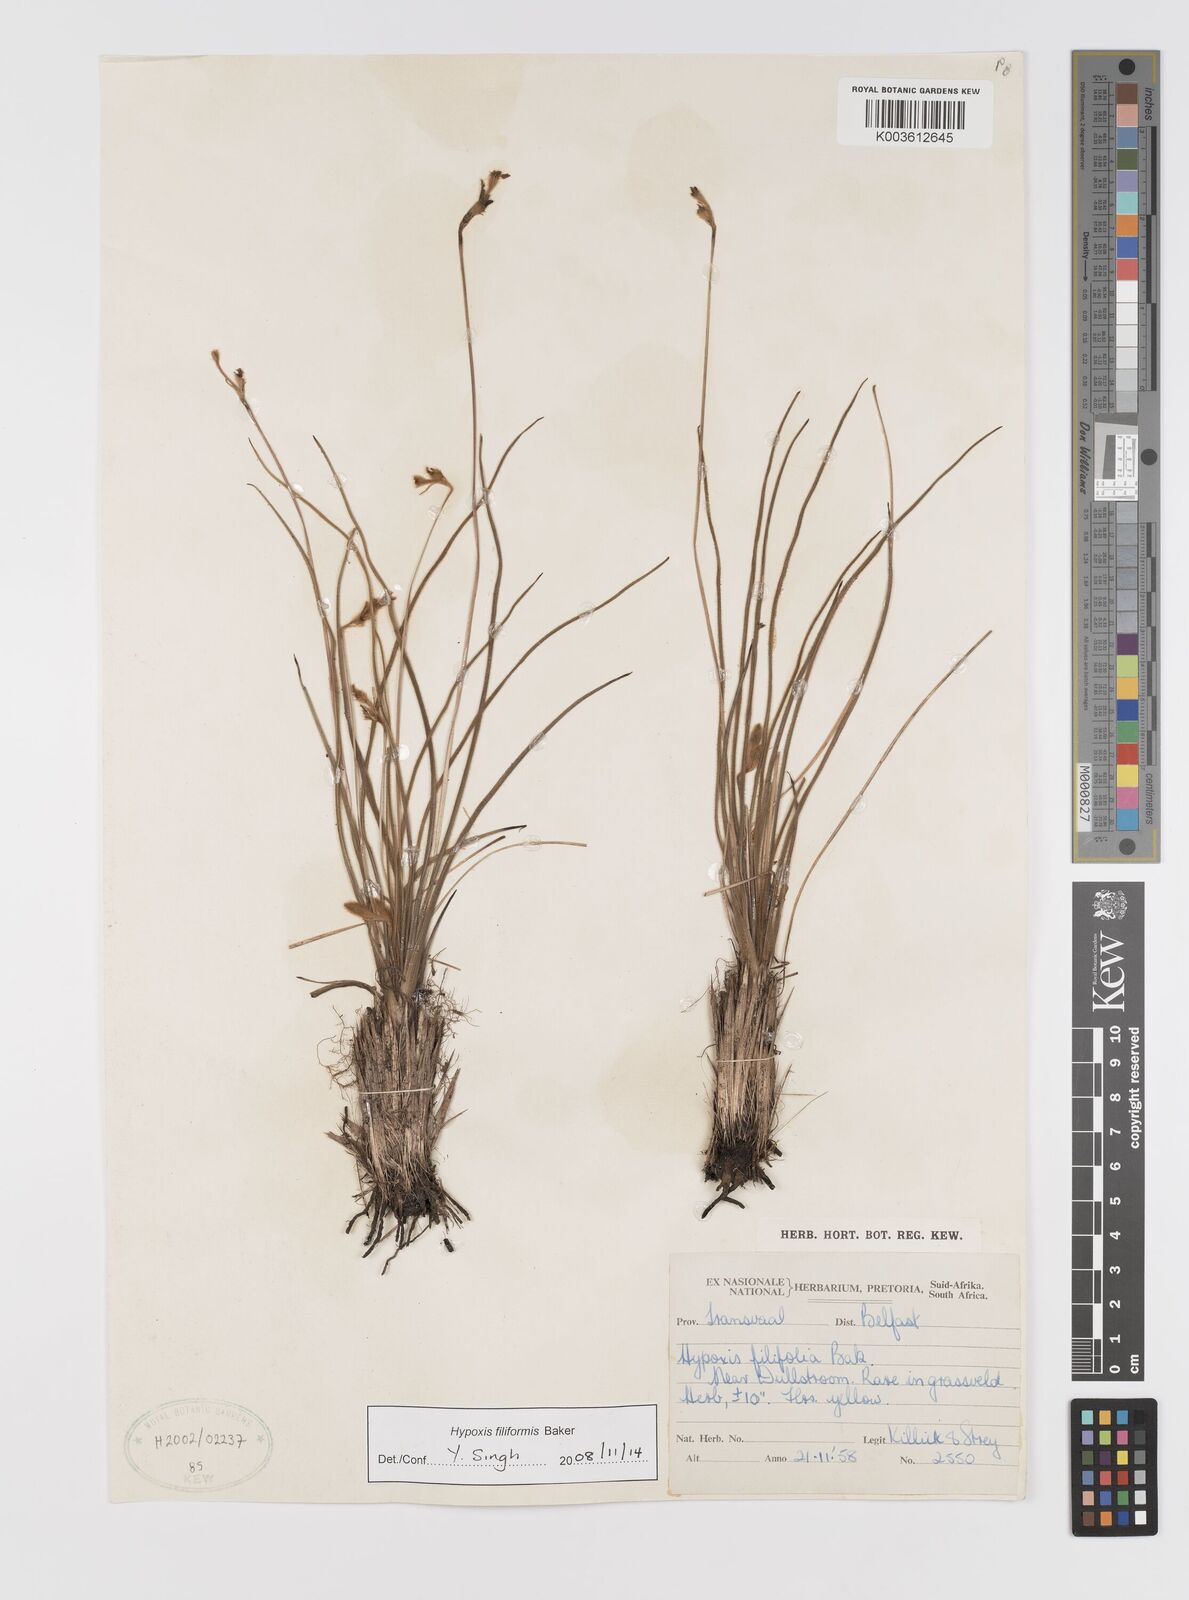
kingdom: Plantae
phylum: Tracheophyta
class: Liliopsida
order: Asparagales
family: Hypoxidaceae
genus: Hypoxis
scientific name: Hypoxis filiformis
